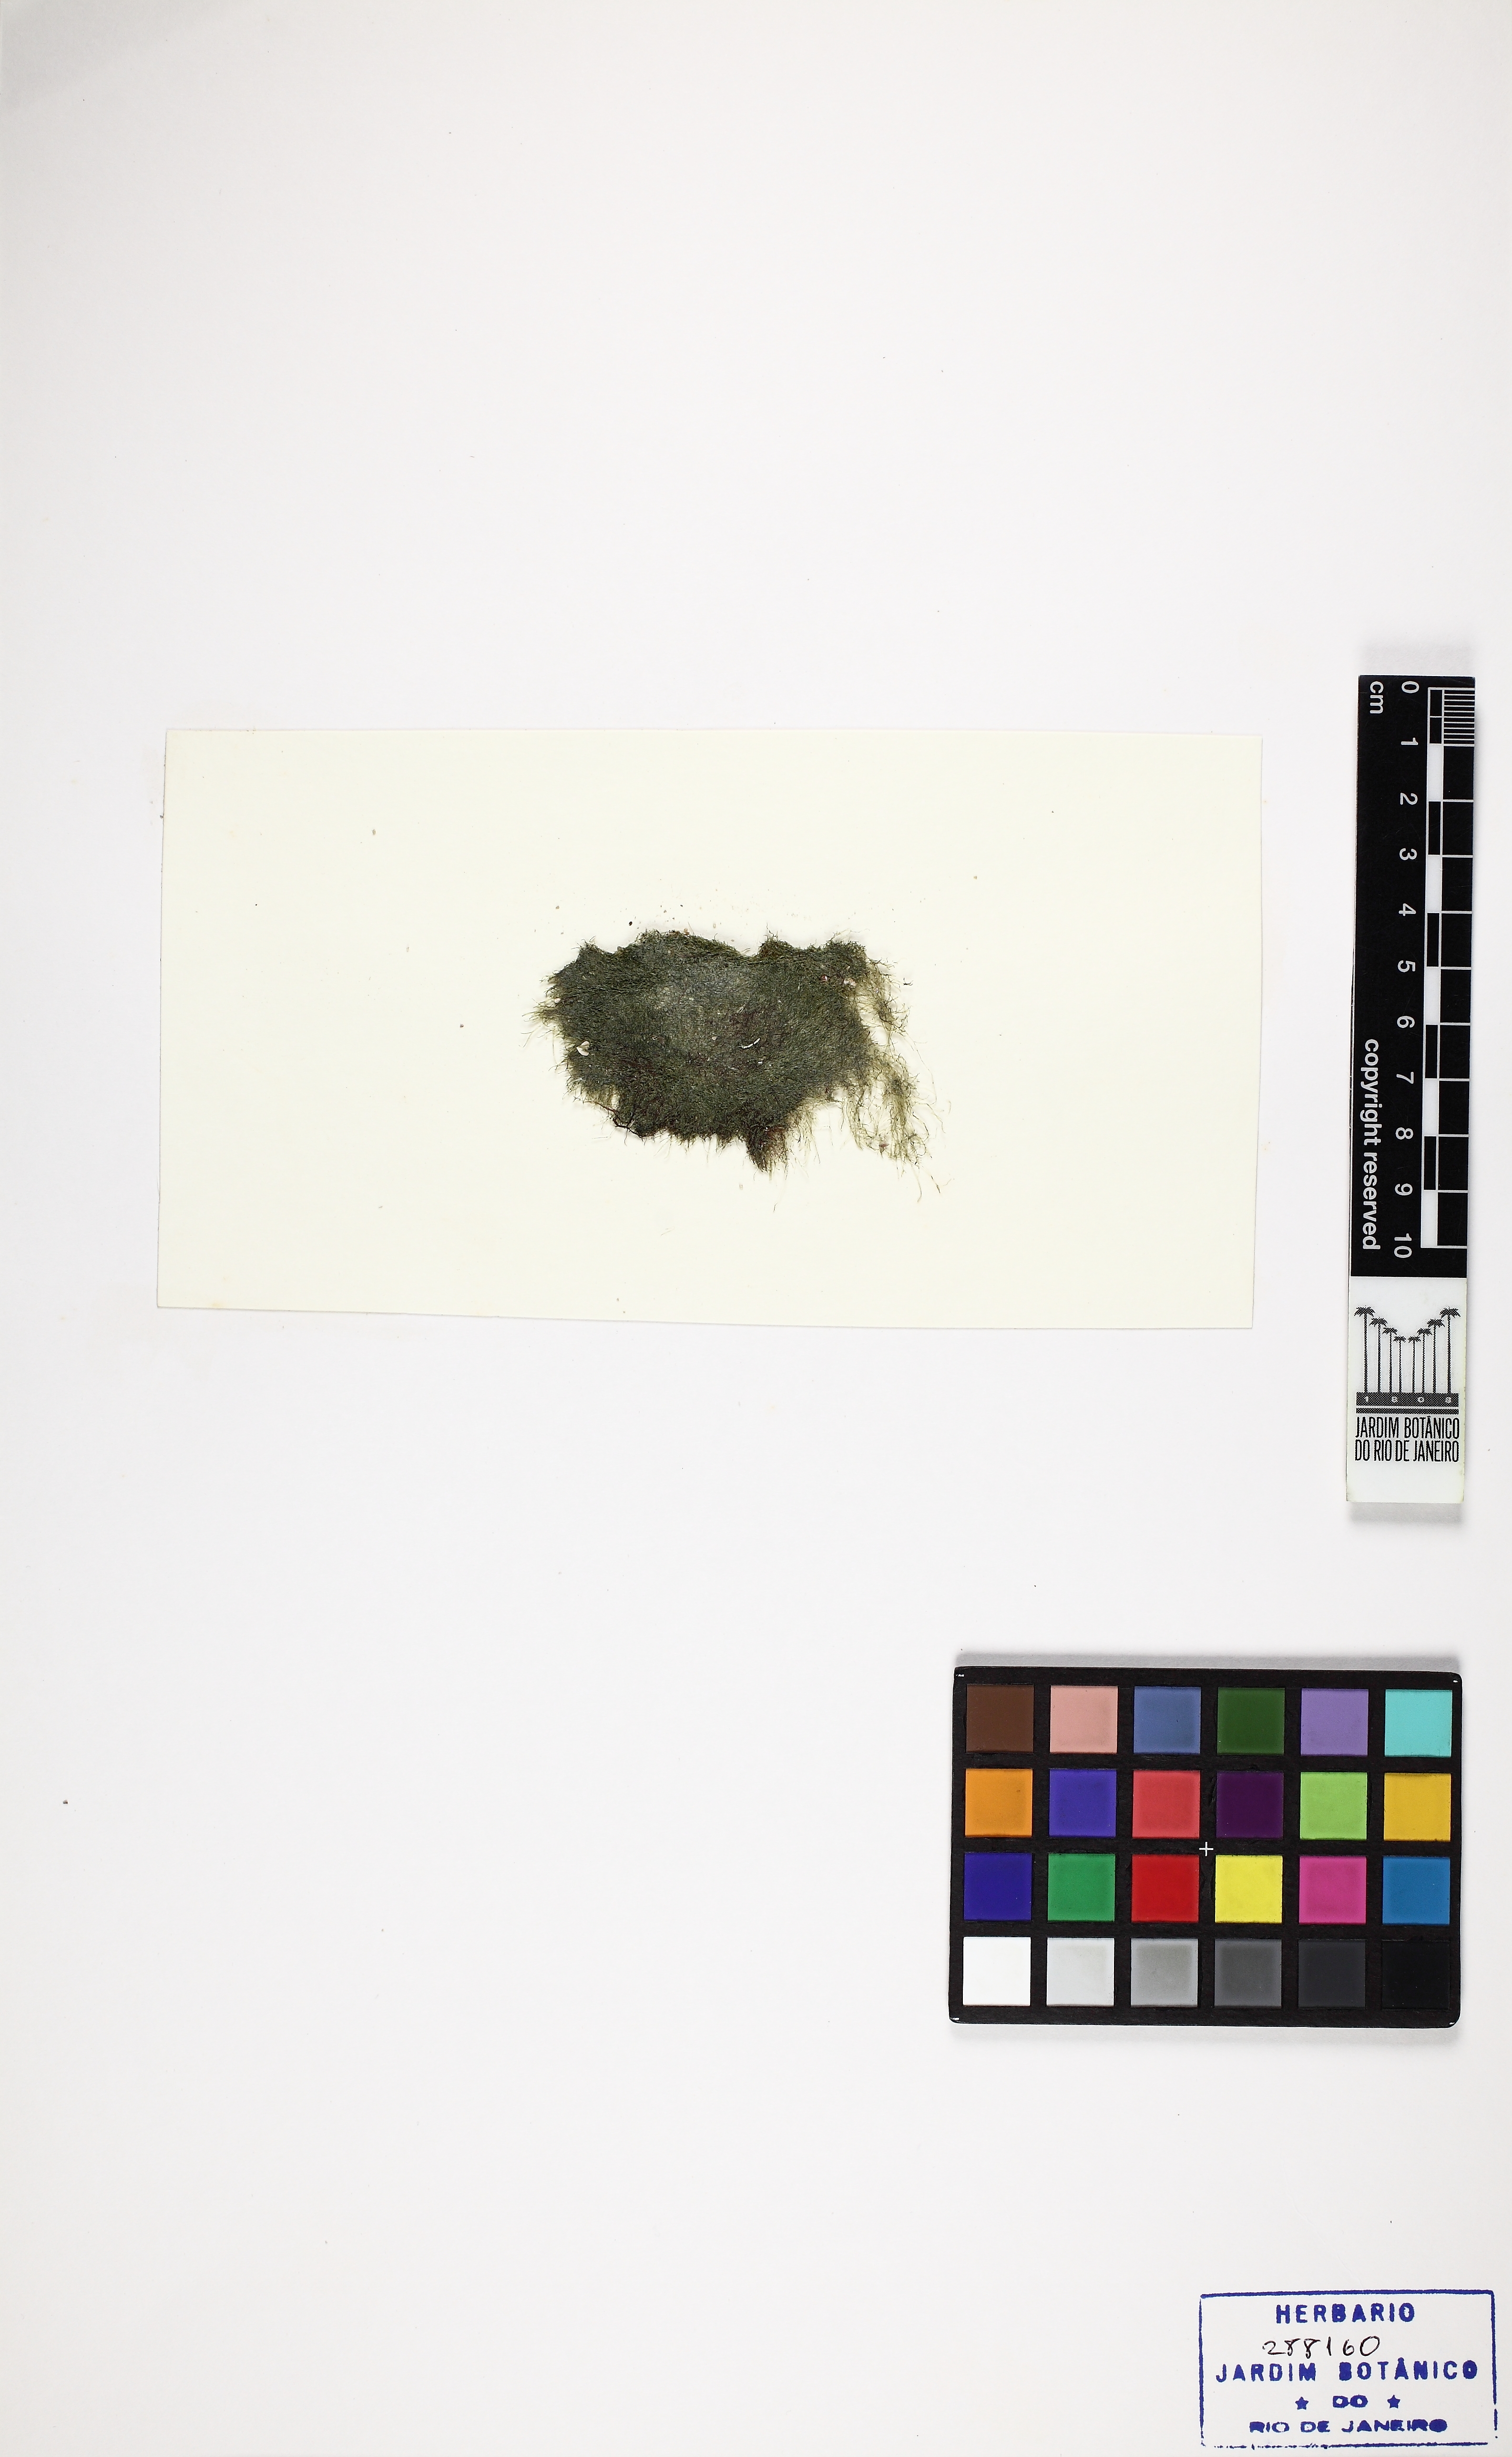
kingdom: Plantae
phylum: Chlorophyta
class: Ulvophyceae
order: Siphonocladales
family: Boodleaceae
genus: Cladophoropsis
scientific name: Cladophoropsis membranacea
